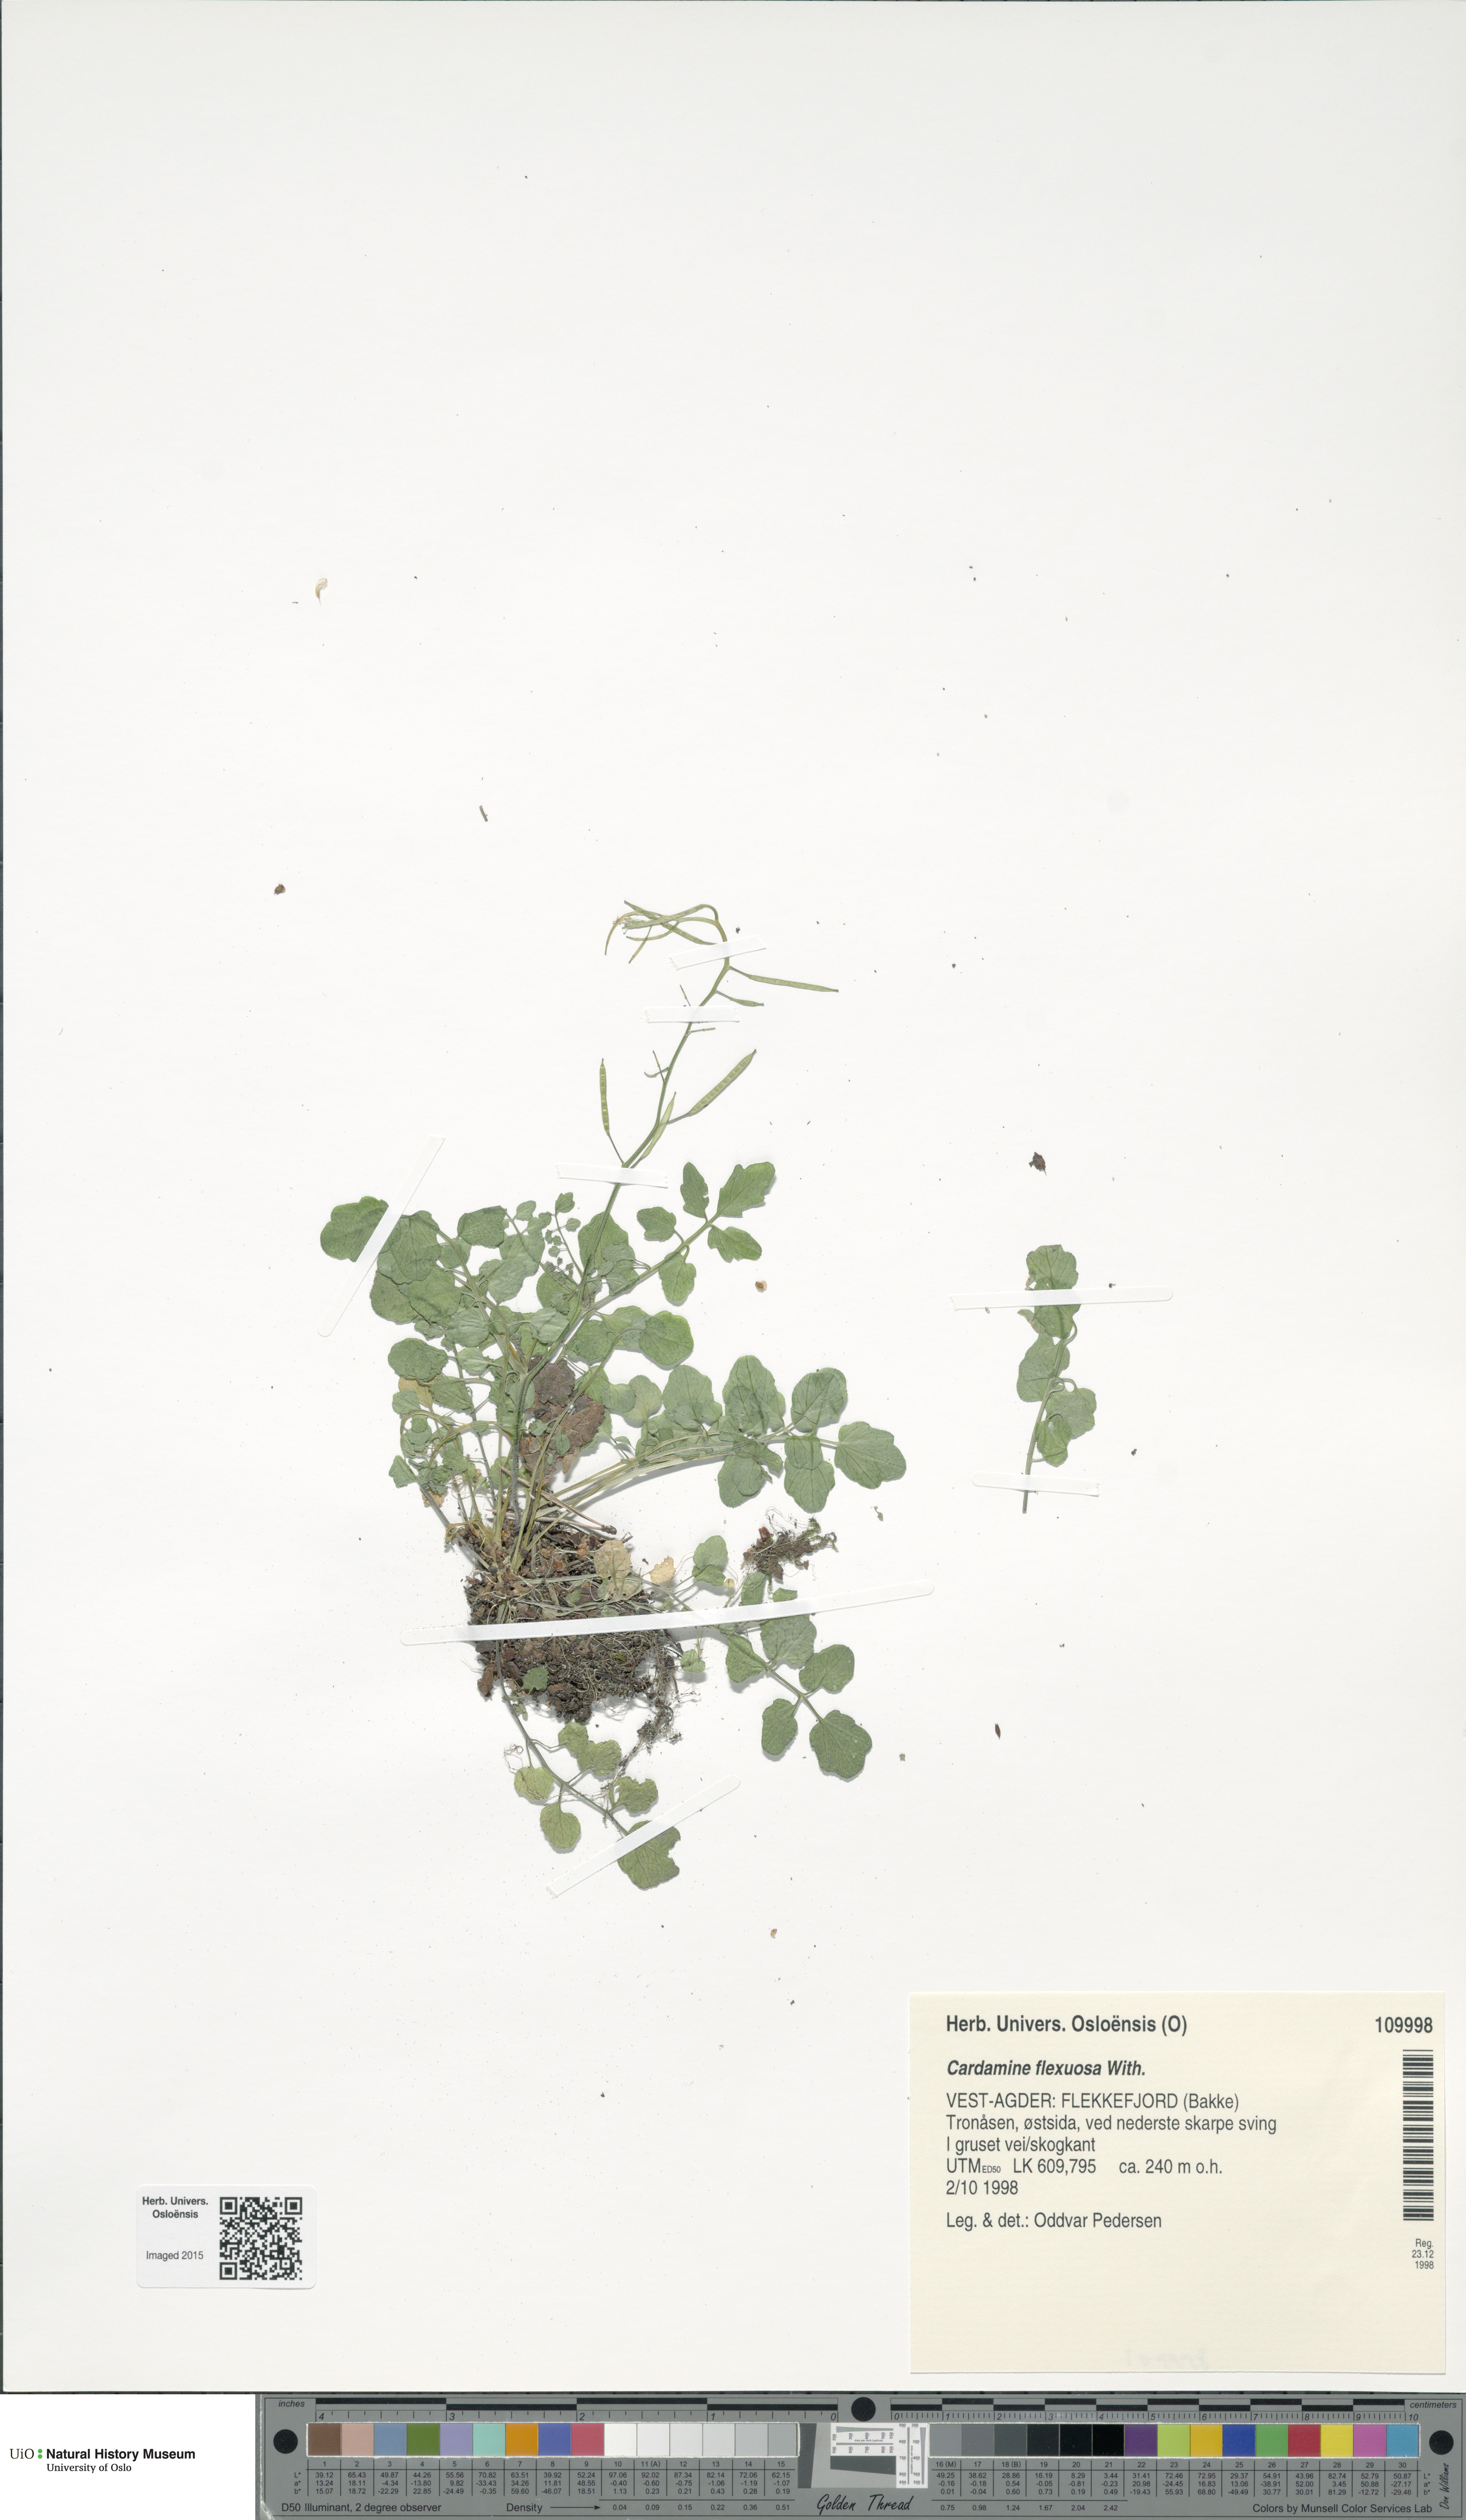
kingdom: Plantae
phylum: Tracheophyta
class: Magnoliopsida
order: Brassicales
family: Brassicaceae
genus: Cardamine
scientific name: Cardamine flexuosa
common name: Woodland bittercress
